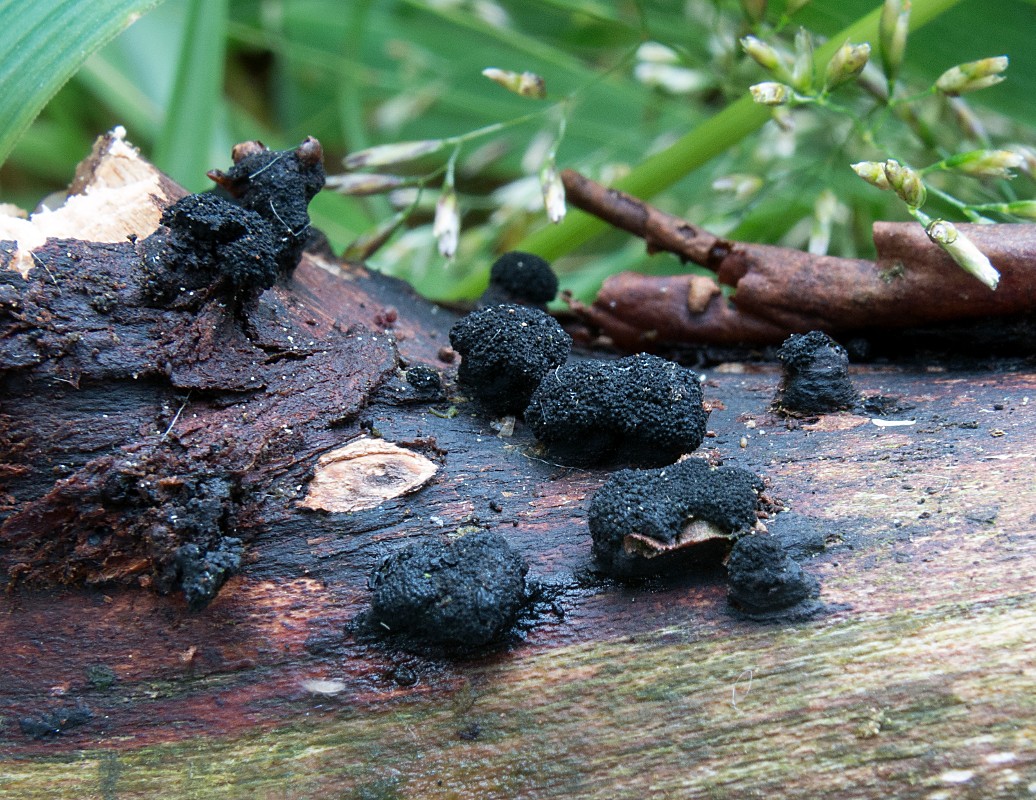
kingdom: Fungi
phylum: Ascomycota
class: Sordariomycetes
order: Xylariales
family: Diatrypaceae
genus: Diatrypella
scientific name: Diatrypella quercina
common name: ege-kulskorpe
